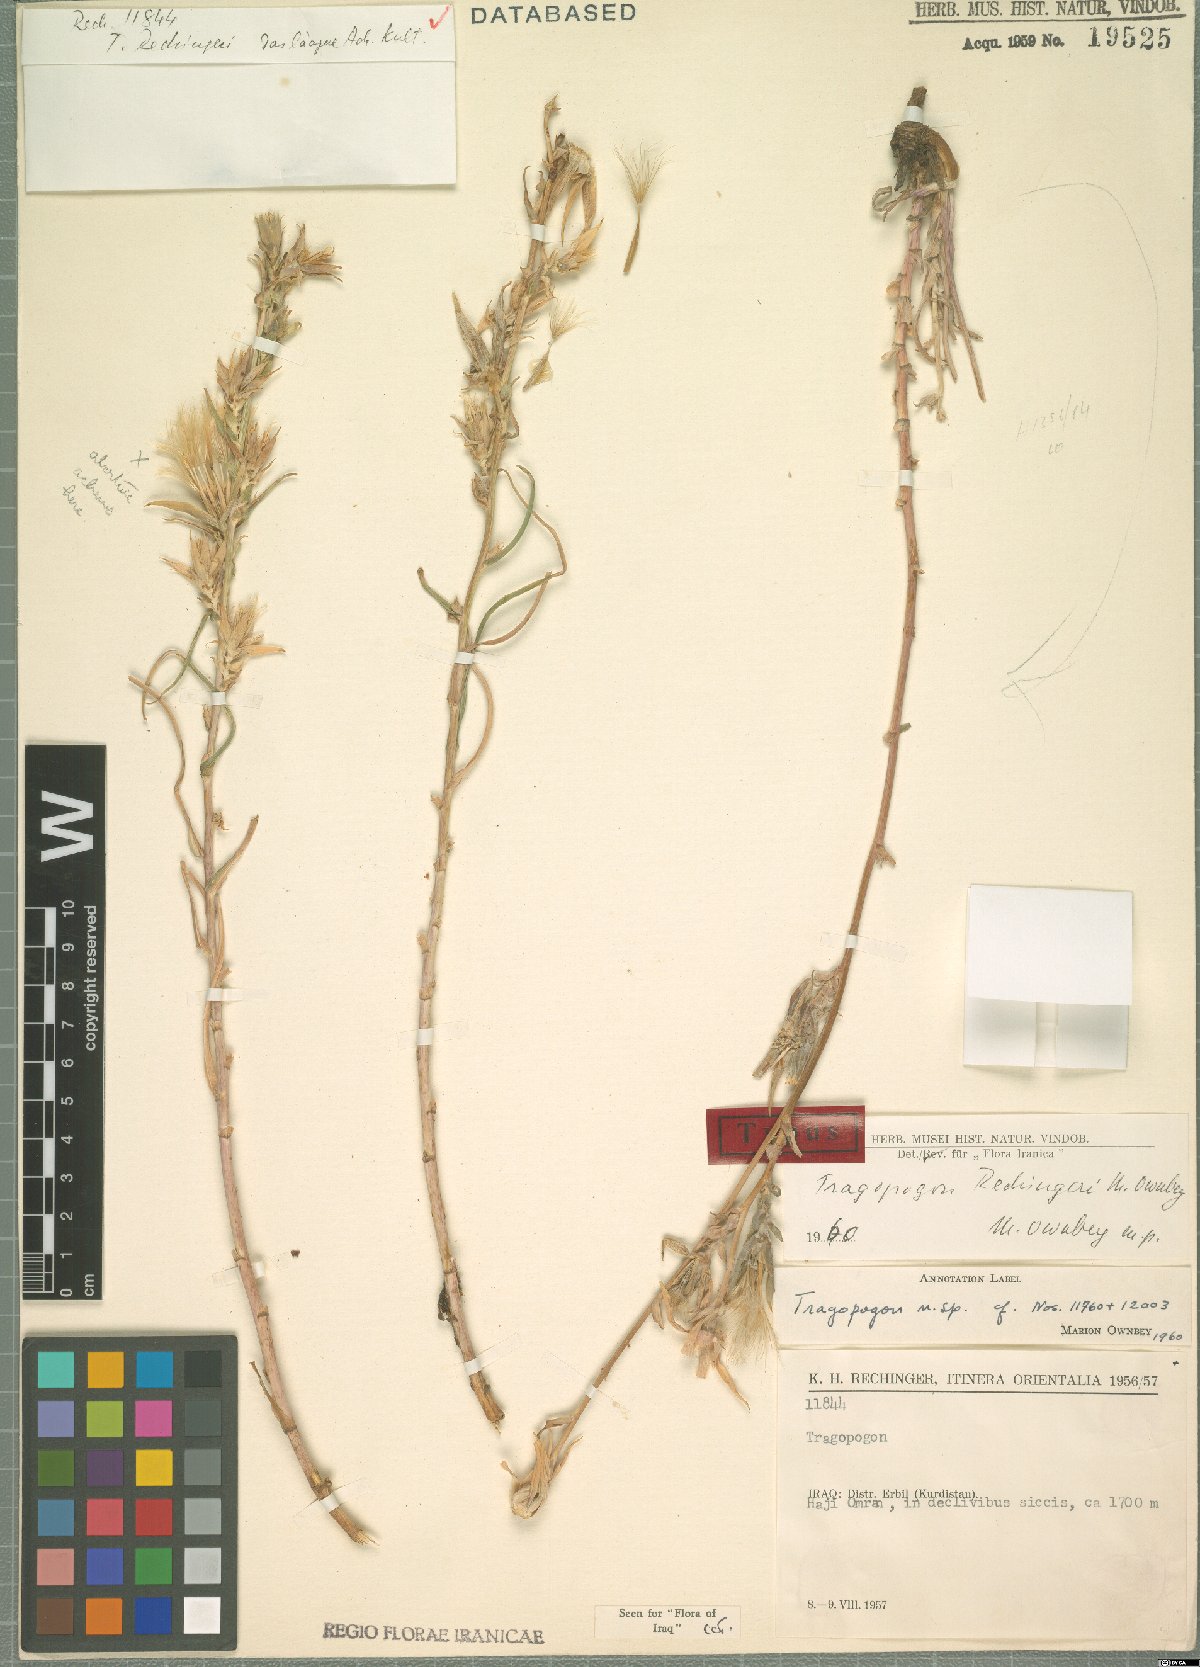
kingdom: Plantae
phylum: Tracheophyta
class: Magnoliopsida
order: Asterales
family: Asteraceae
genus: Tragopogon
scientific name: Tragopogon rechingeri
